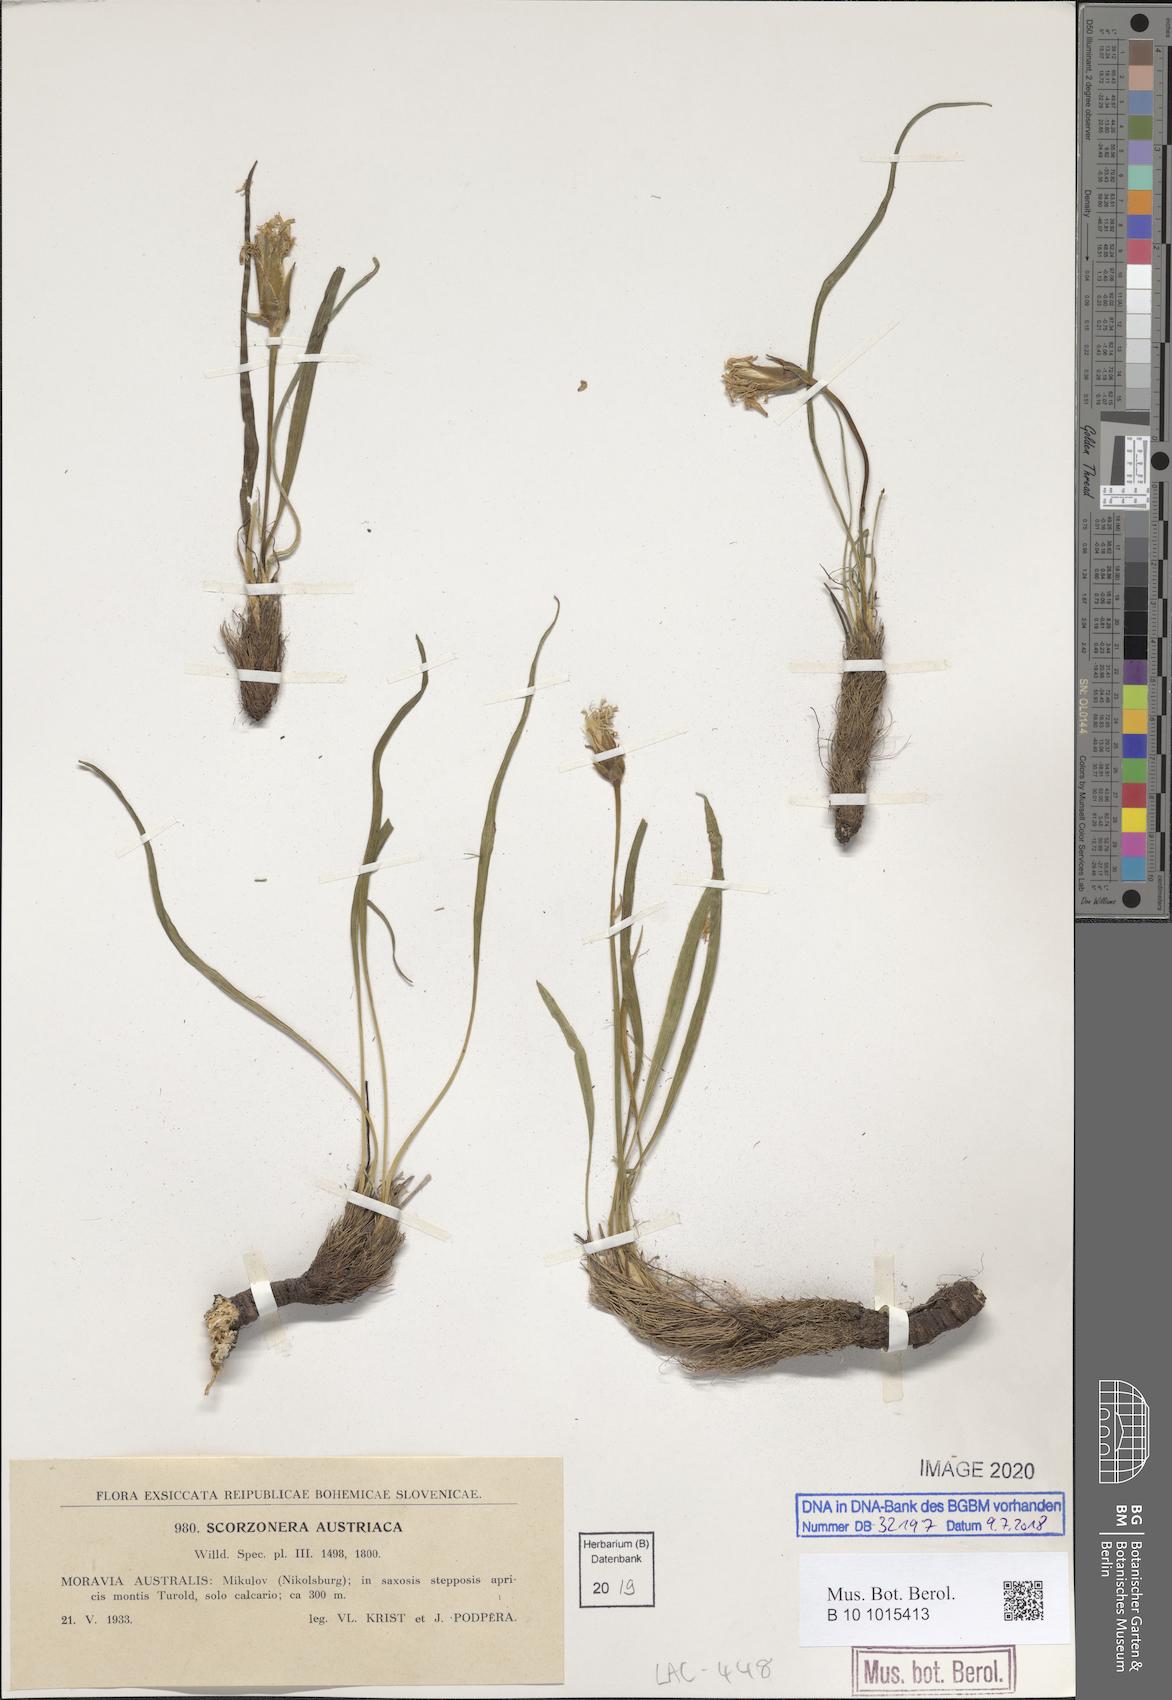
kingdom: Plantae
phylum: Tracheophyta
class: Magnoliopsida
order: Asterales
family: Asteraceae
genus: Takhtajaniantha
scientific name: Takhtajaniantha austriaca
